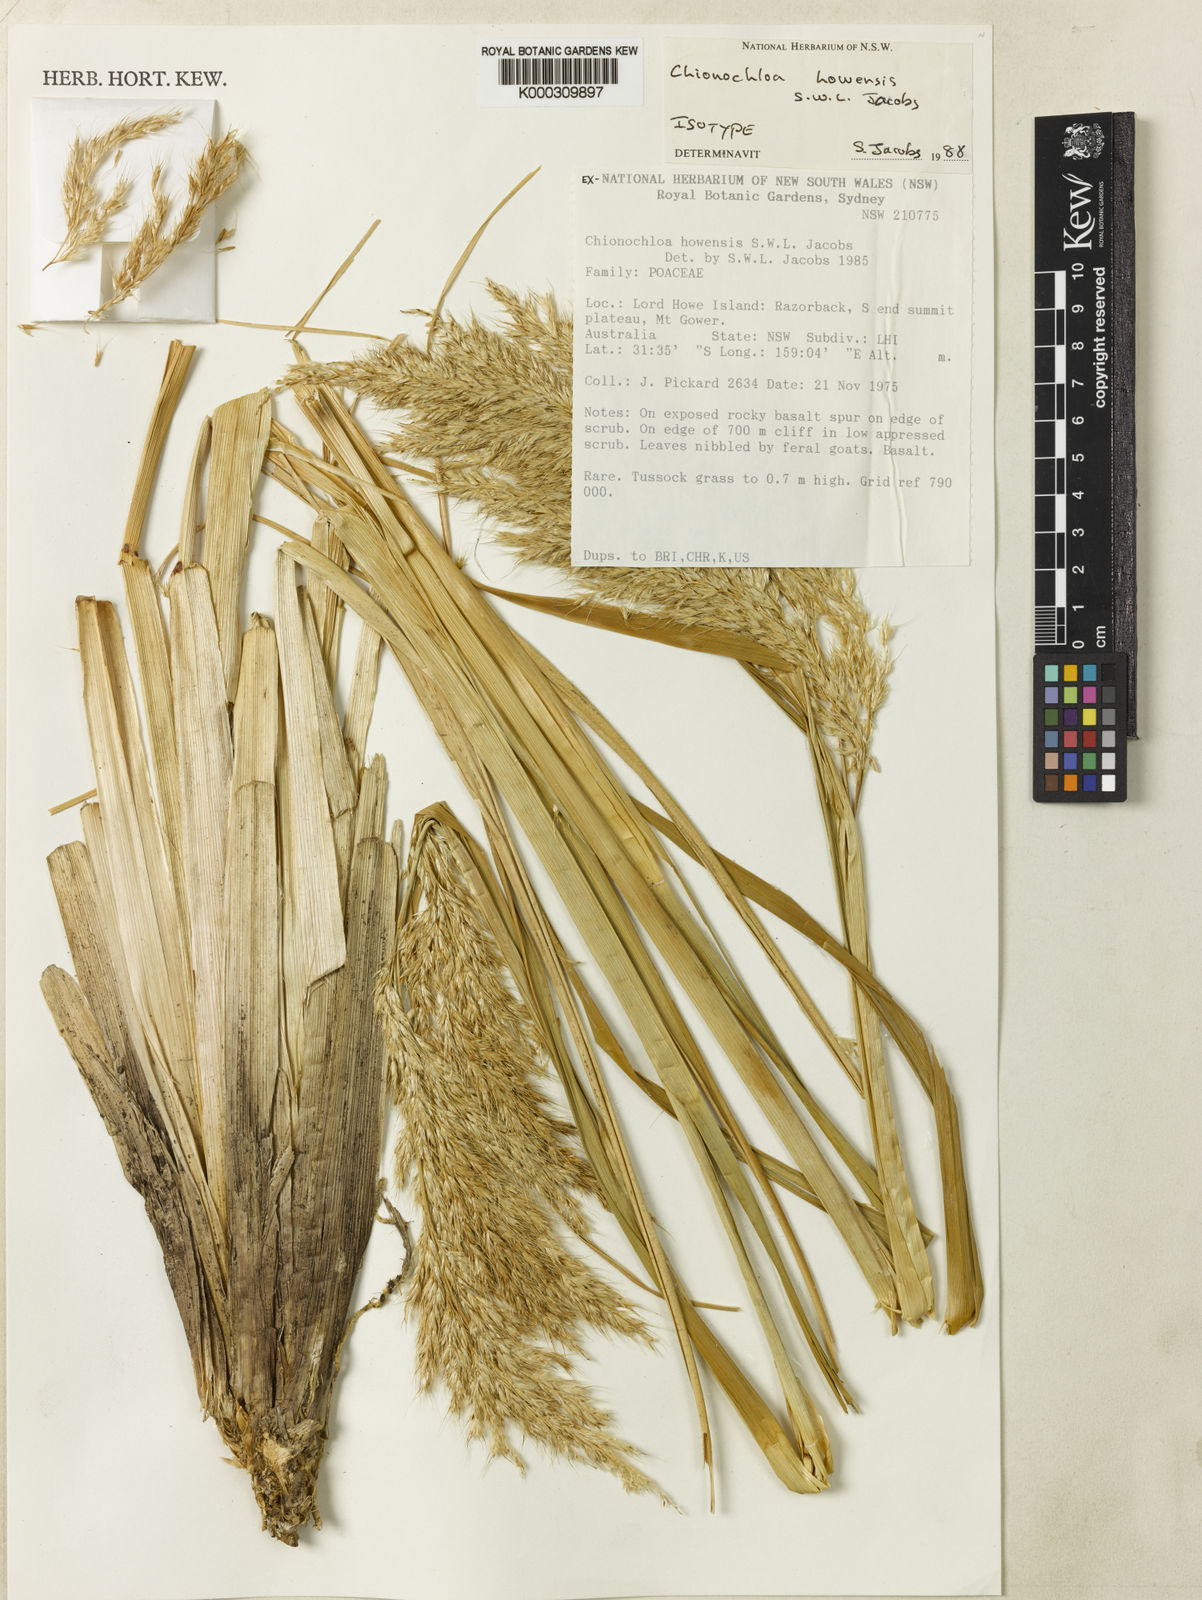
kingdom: Plantae
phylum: Tracheophyta
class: Liliopsida
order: Poales
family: Poaceae
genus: Chionochloa
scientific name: Chionochloa howensis
